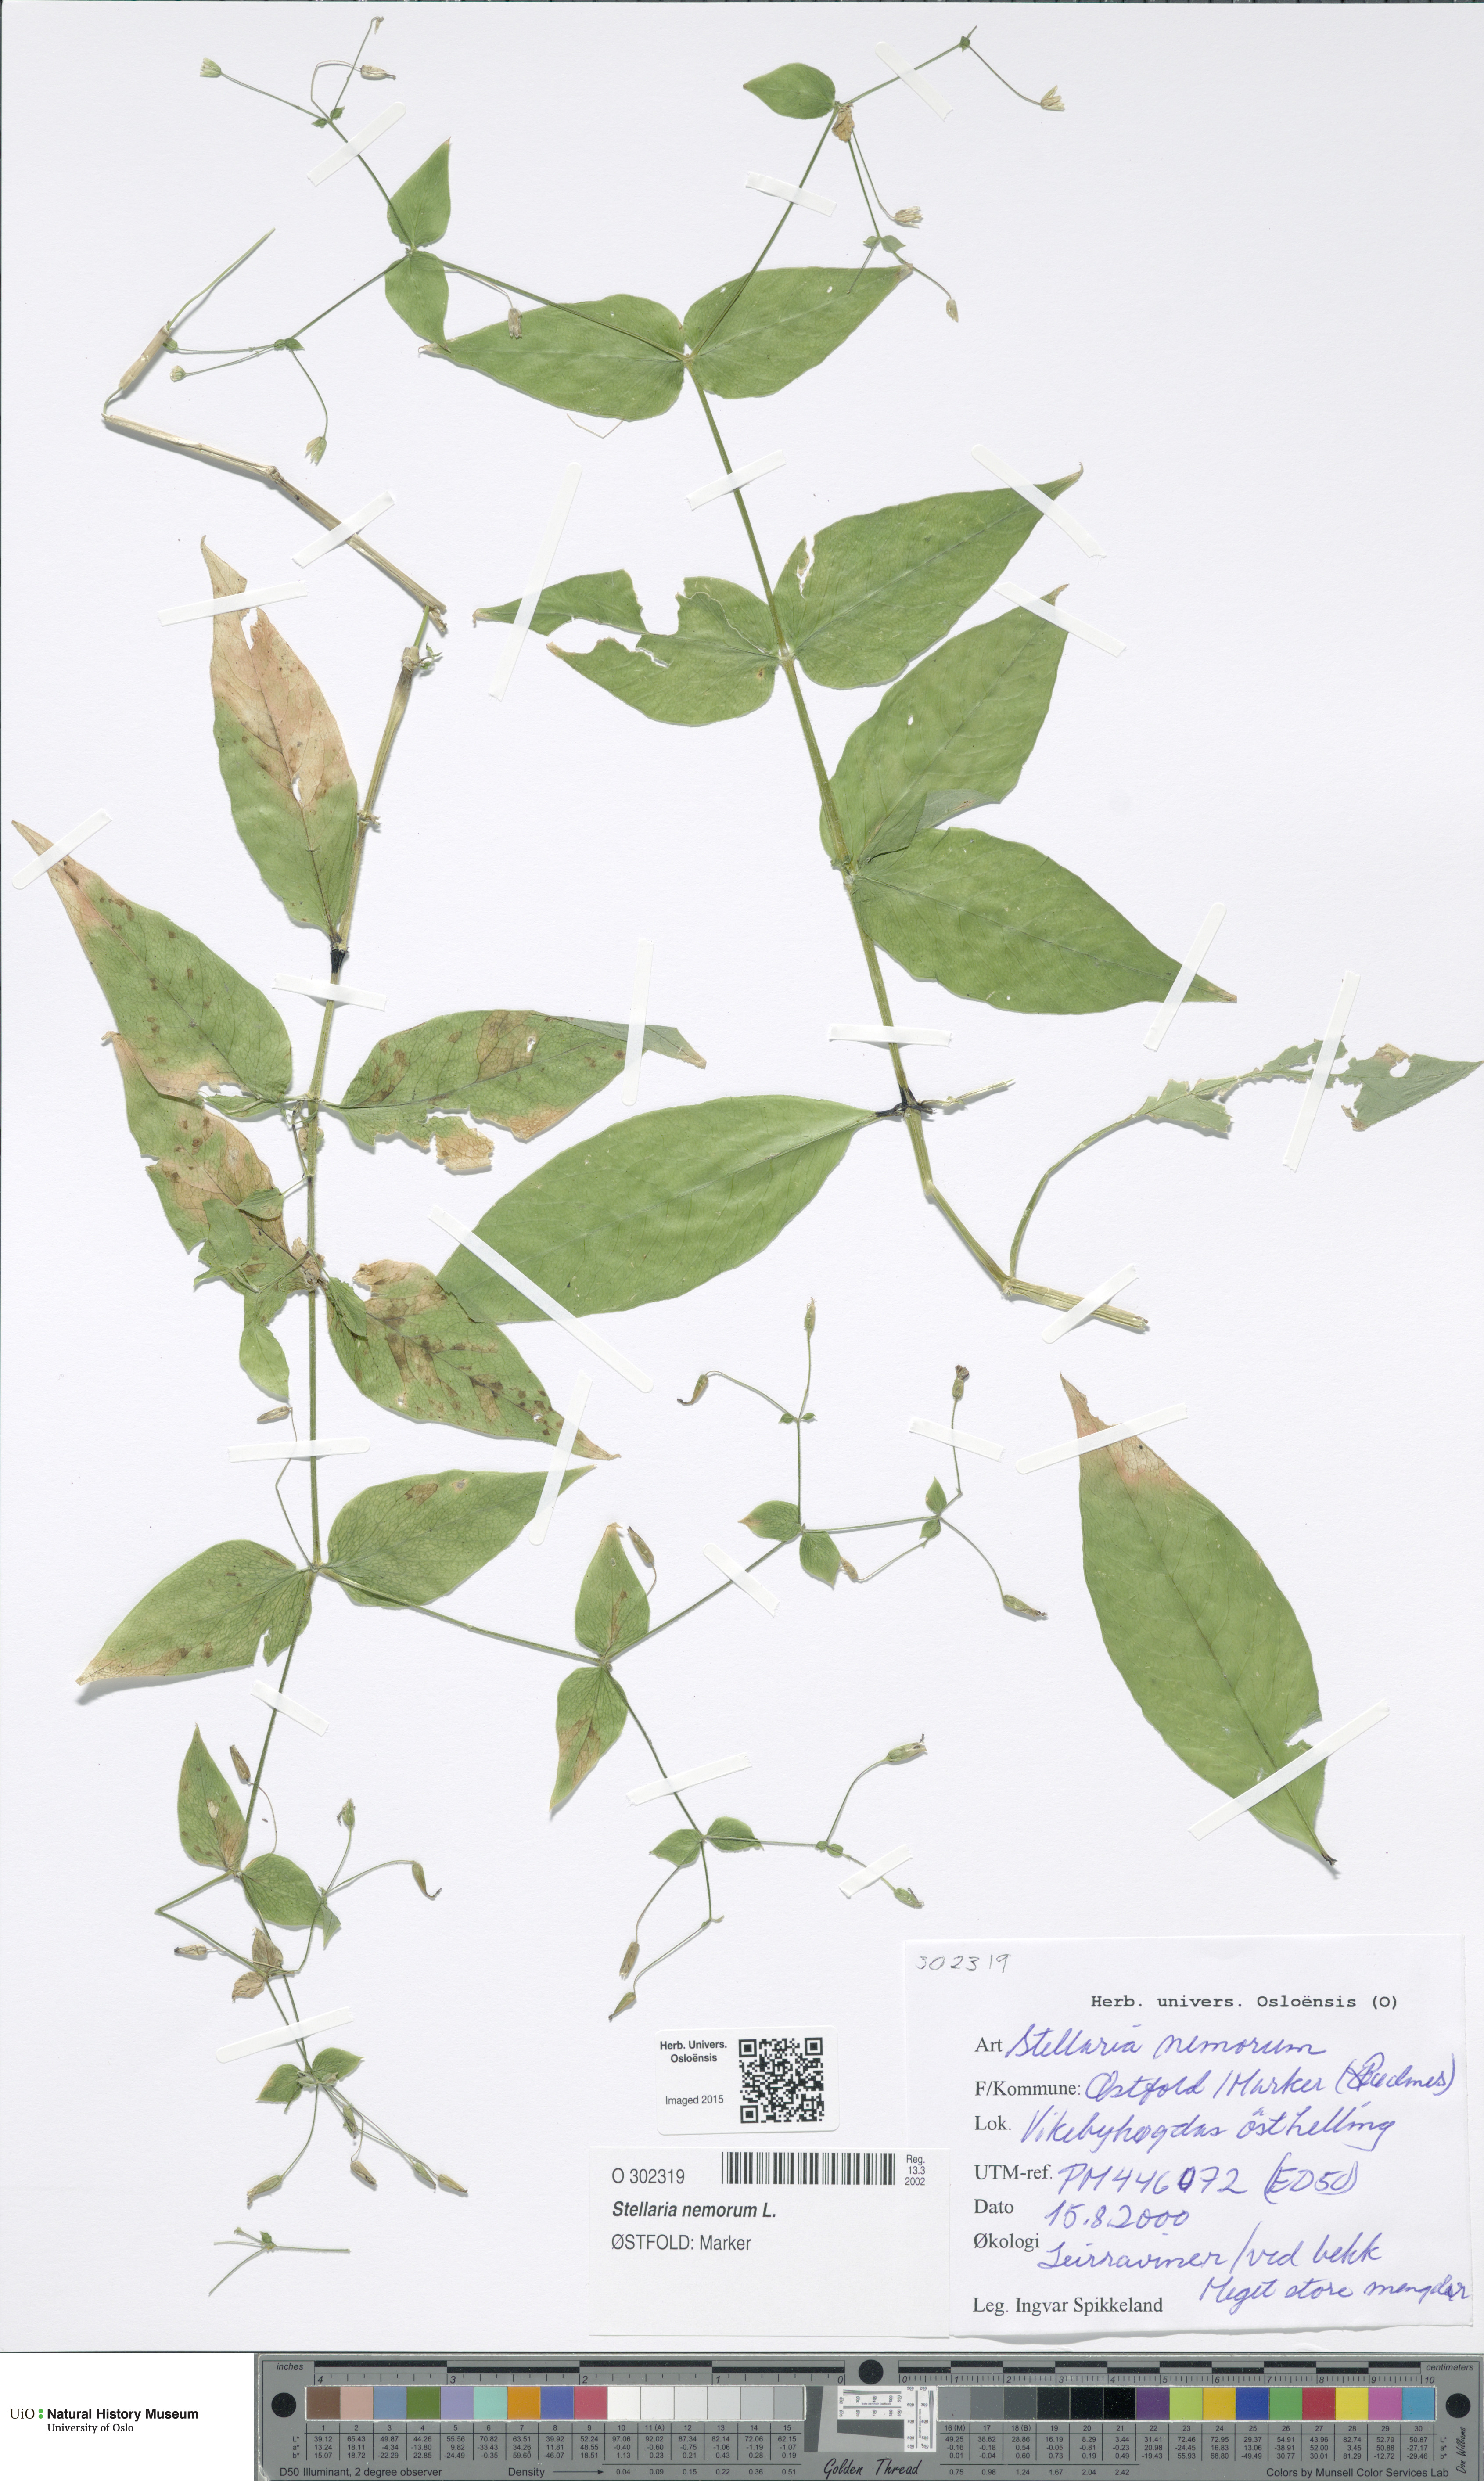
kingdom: Plantae
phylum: Tracheophyta
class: Magnoliopsida
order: Caryophyllales
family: Caryophyllaceae
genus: Stellaria
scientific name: Stellaria nemorum
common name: Wood stitchwort
